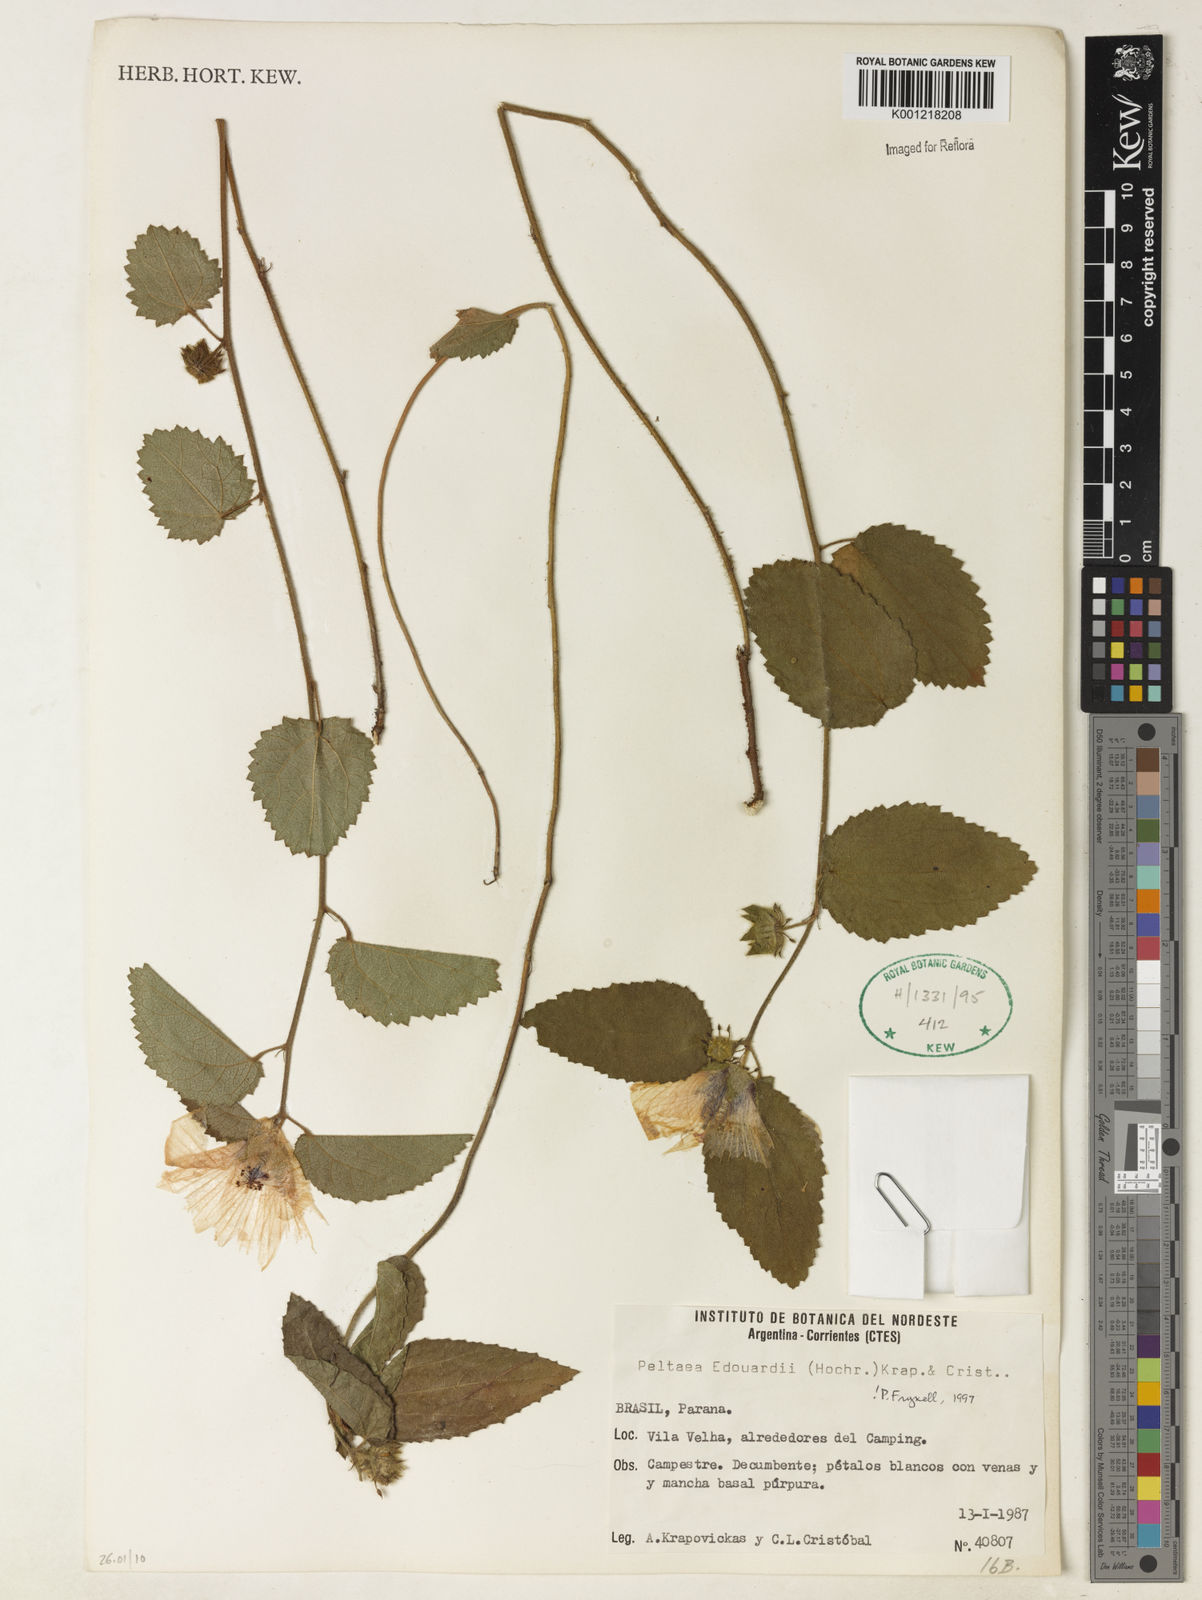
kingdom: Plantae
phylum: Tracheophyta
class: Magnoliopsida
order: Malvales
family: Malvaceae
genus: Peltaea
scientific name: Peltaea
